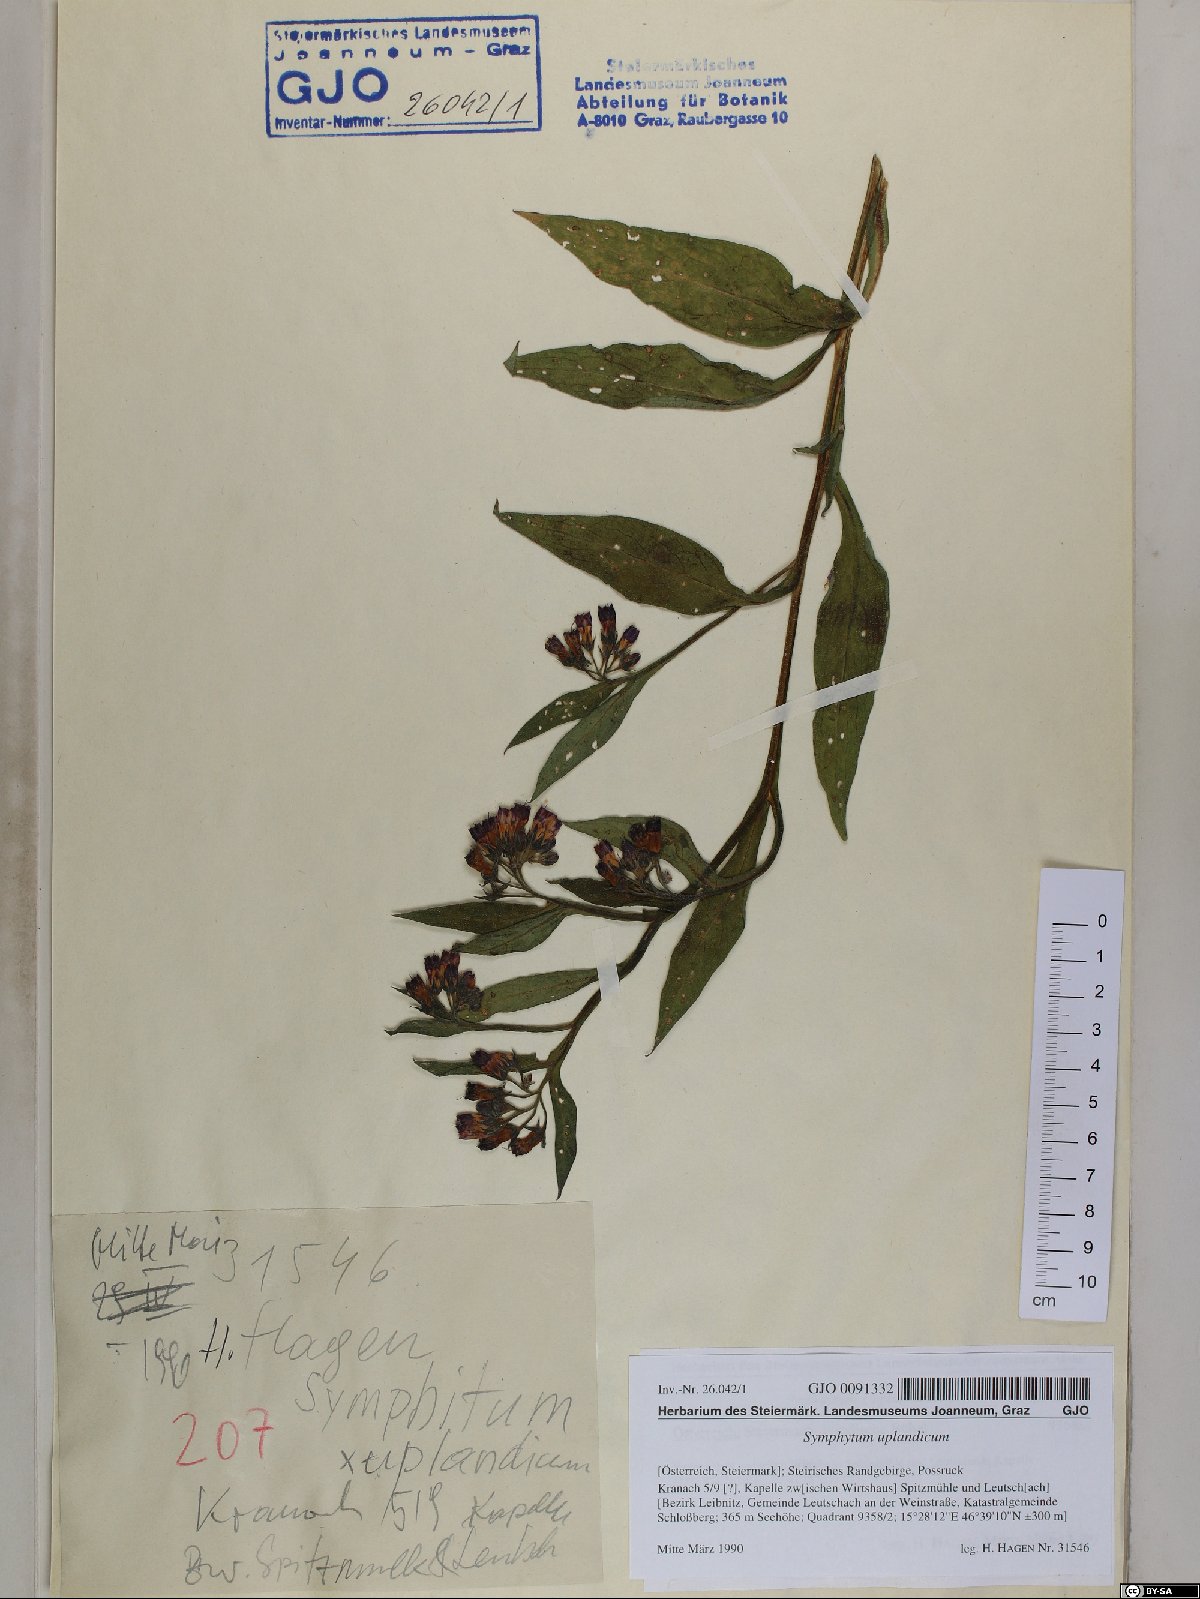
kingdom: Plantae
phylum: Tracheophyta
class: Magnoliopsida
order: Boraginales
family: Boraginaceae
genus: Symphytum
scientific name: Symphytum uplandicum
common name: Russian comfrey
